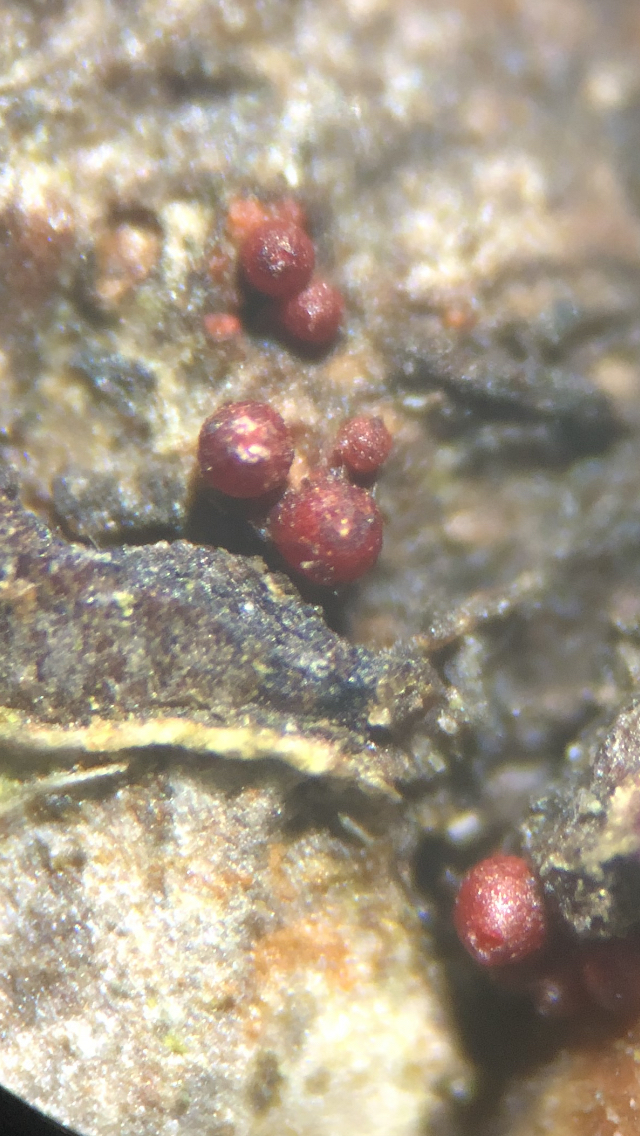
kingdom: Fungi
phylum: Ascomycota
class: Sordariomycetes
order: Hypocreales
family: Nectriaceae
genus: Neonectria
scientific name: Neonectria ditissima
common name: frugttræ-cinnobersvamp
